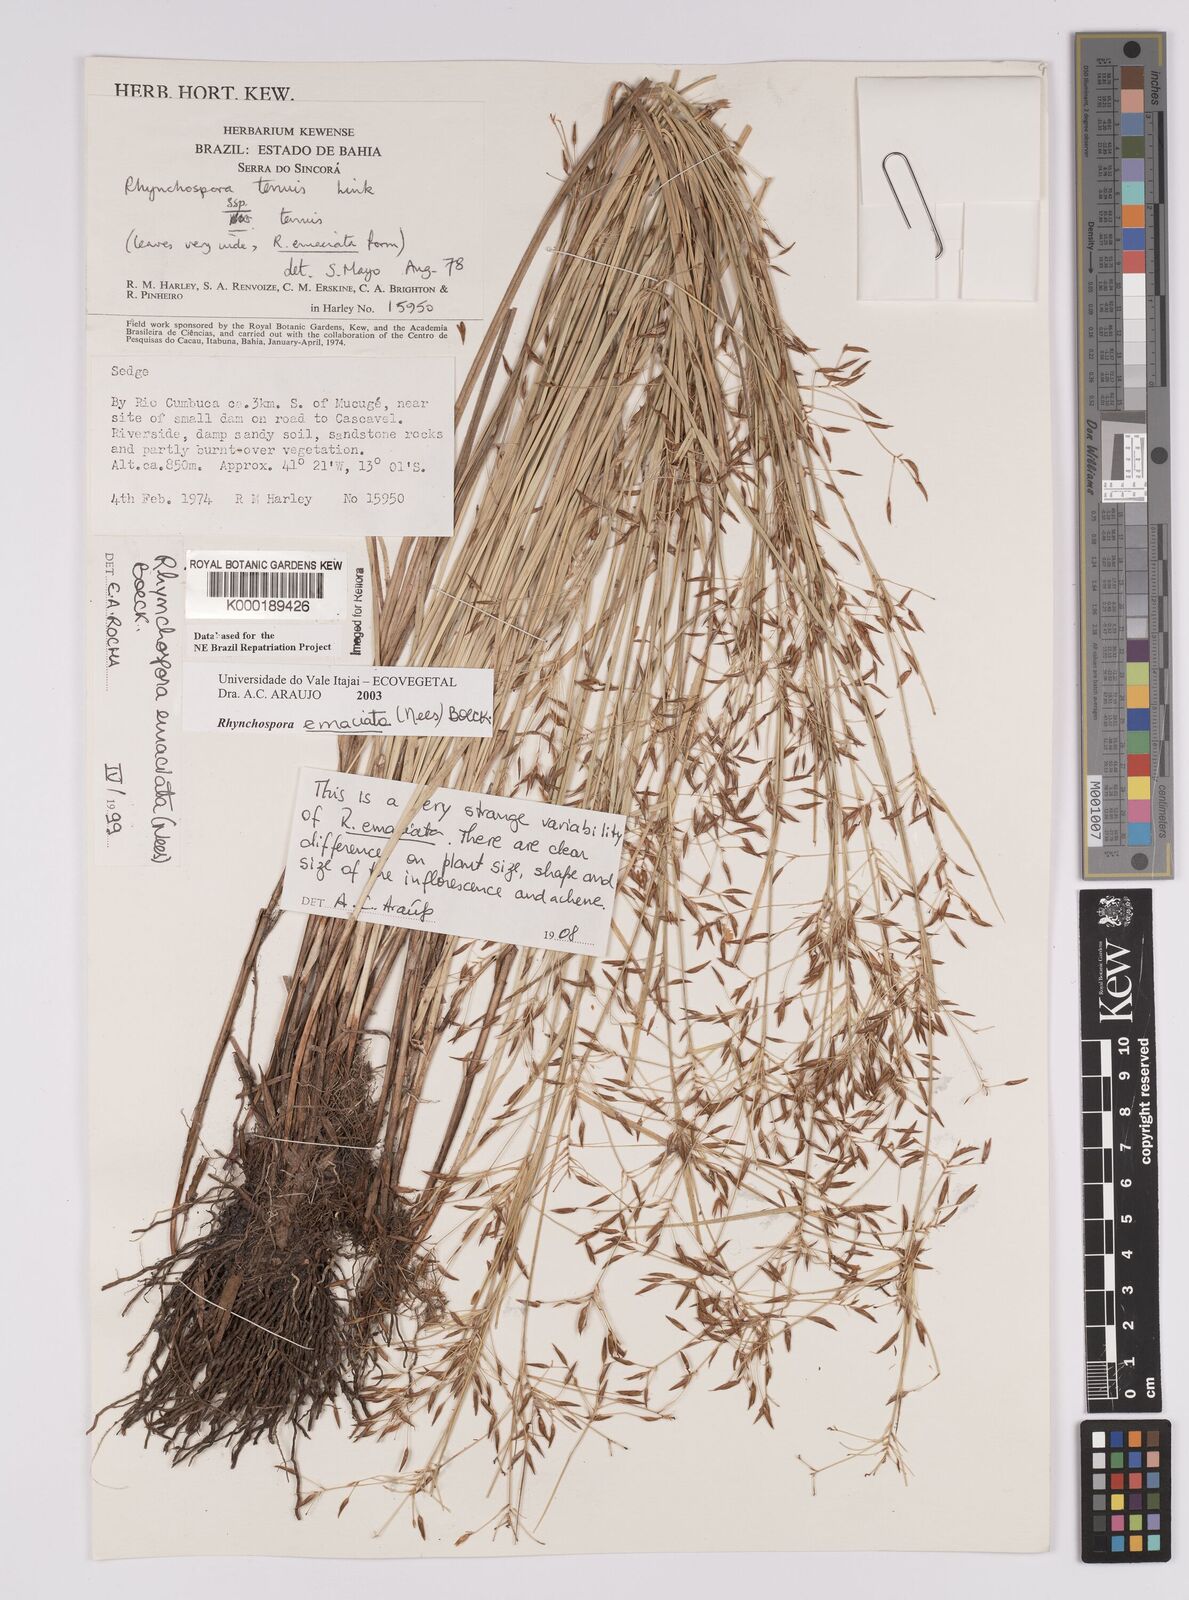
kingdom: Plantae
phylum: Tracheophyta
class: Liliopsida
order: Poales
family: Cyperaceae
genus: Rhynchospora
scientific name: Rhynchospora emaciata
